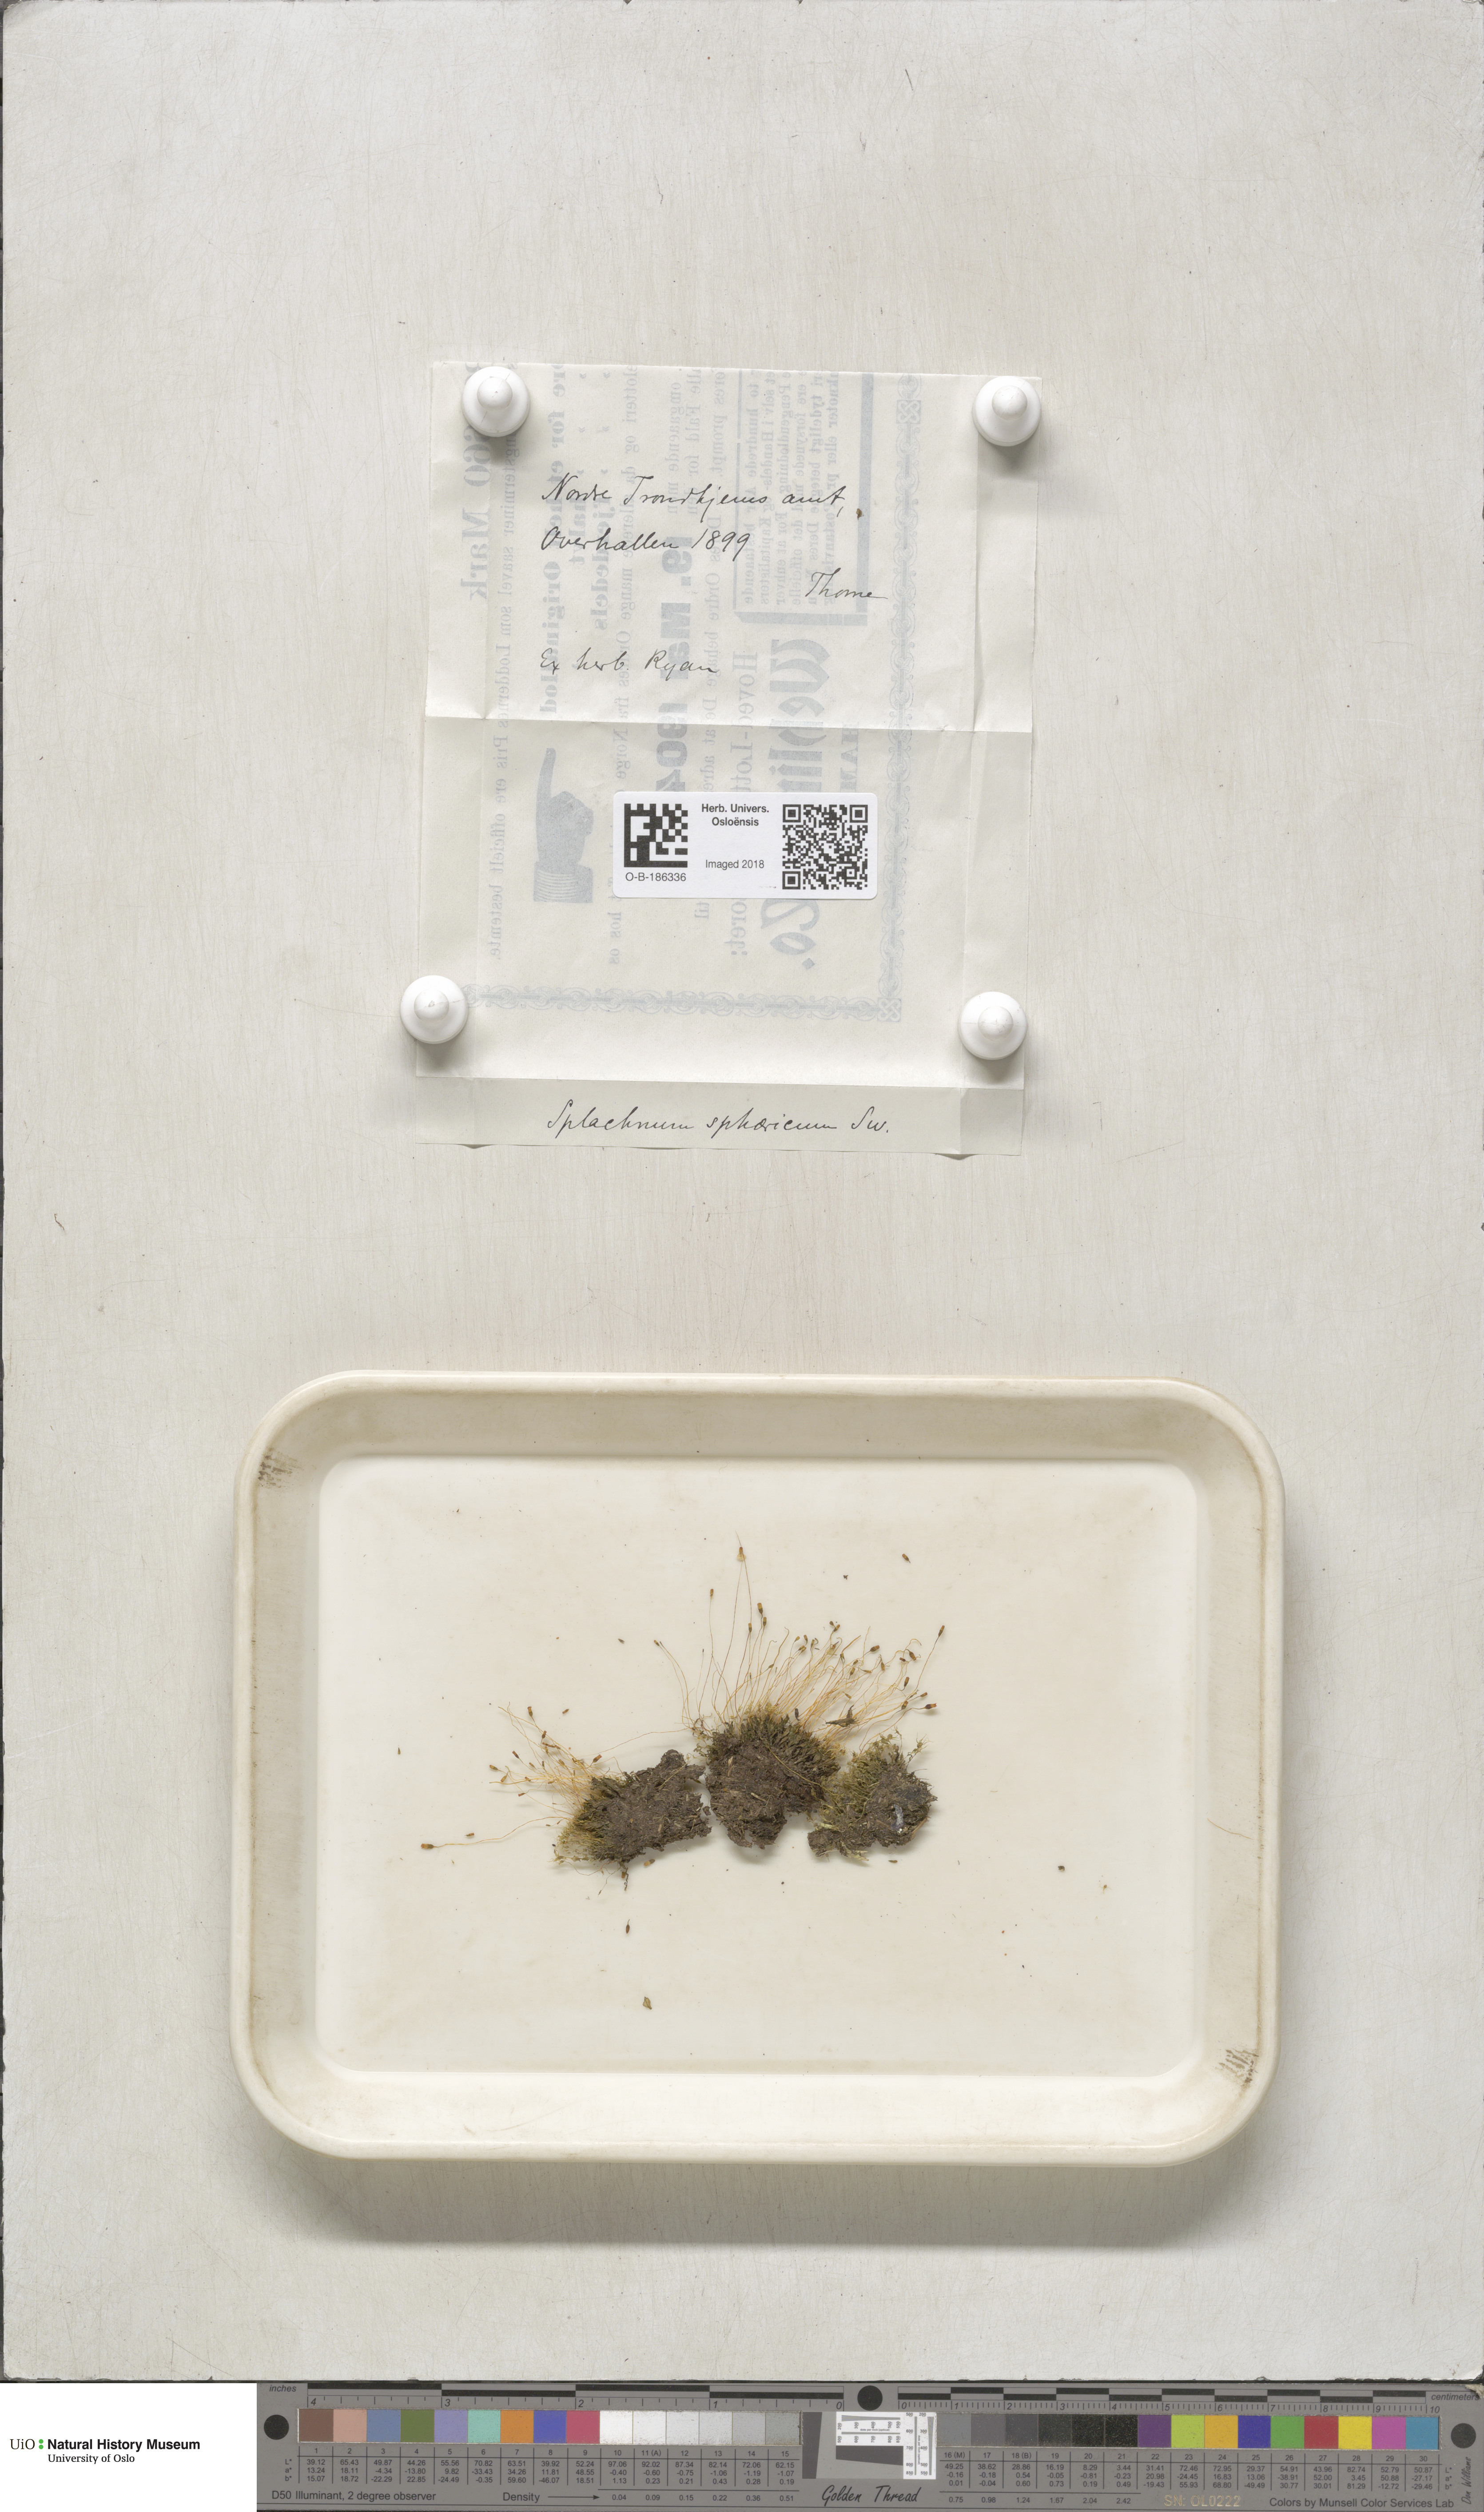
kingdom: Plantae
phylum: Bryophyta
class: Bryopsida
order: Splachnales
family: Splachnaceae
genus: Splachnum
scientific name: Splachnum sphaericum
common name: Round-fruited dung moss
